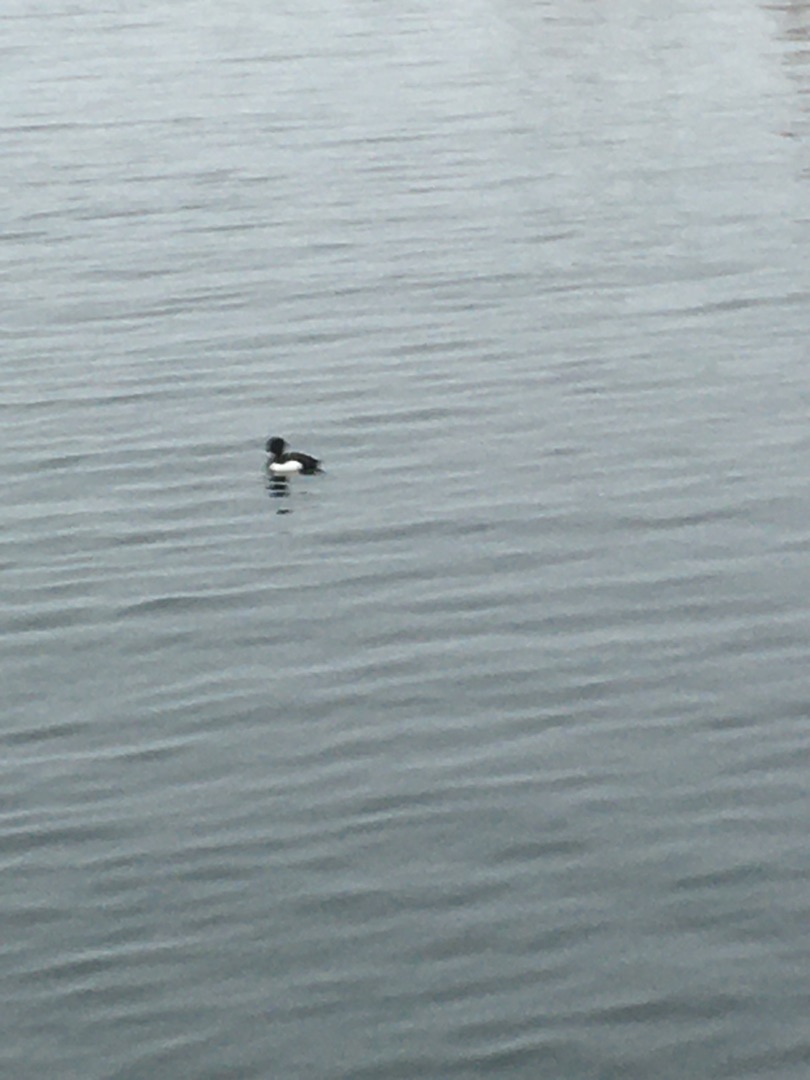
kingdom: Animalia
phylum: Chordata
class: Aves
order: Anseriformes
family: Anatidae
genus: Aythya
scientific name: Aythya fuligula
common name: Troldand
